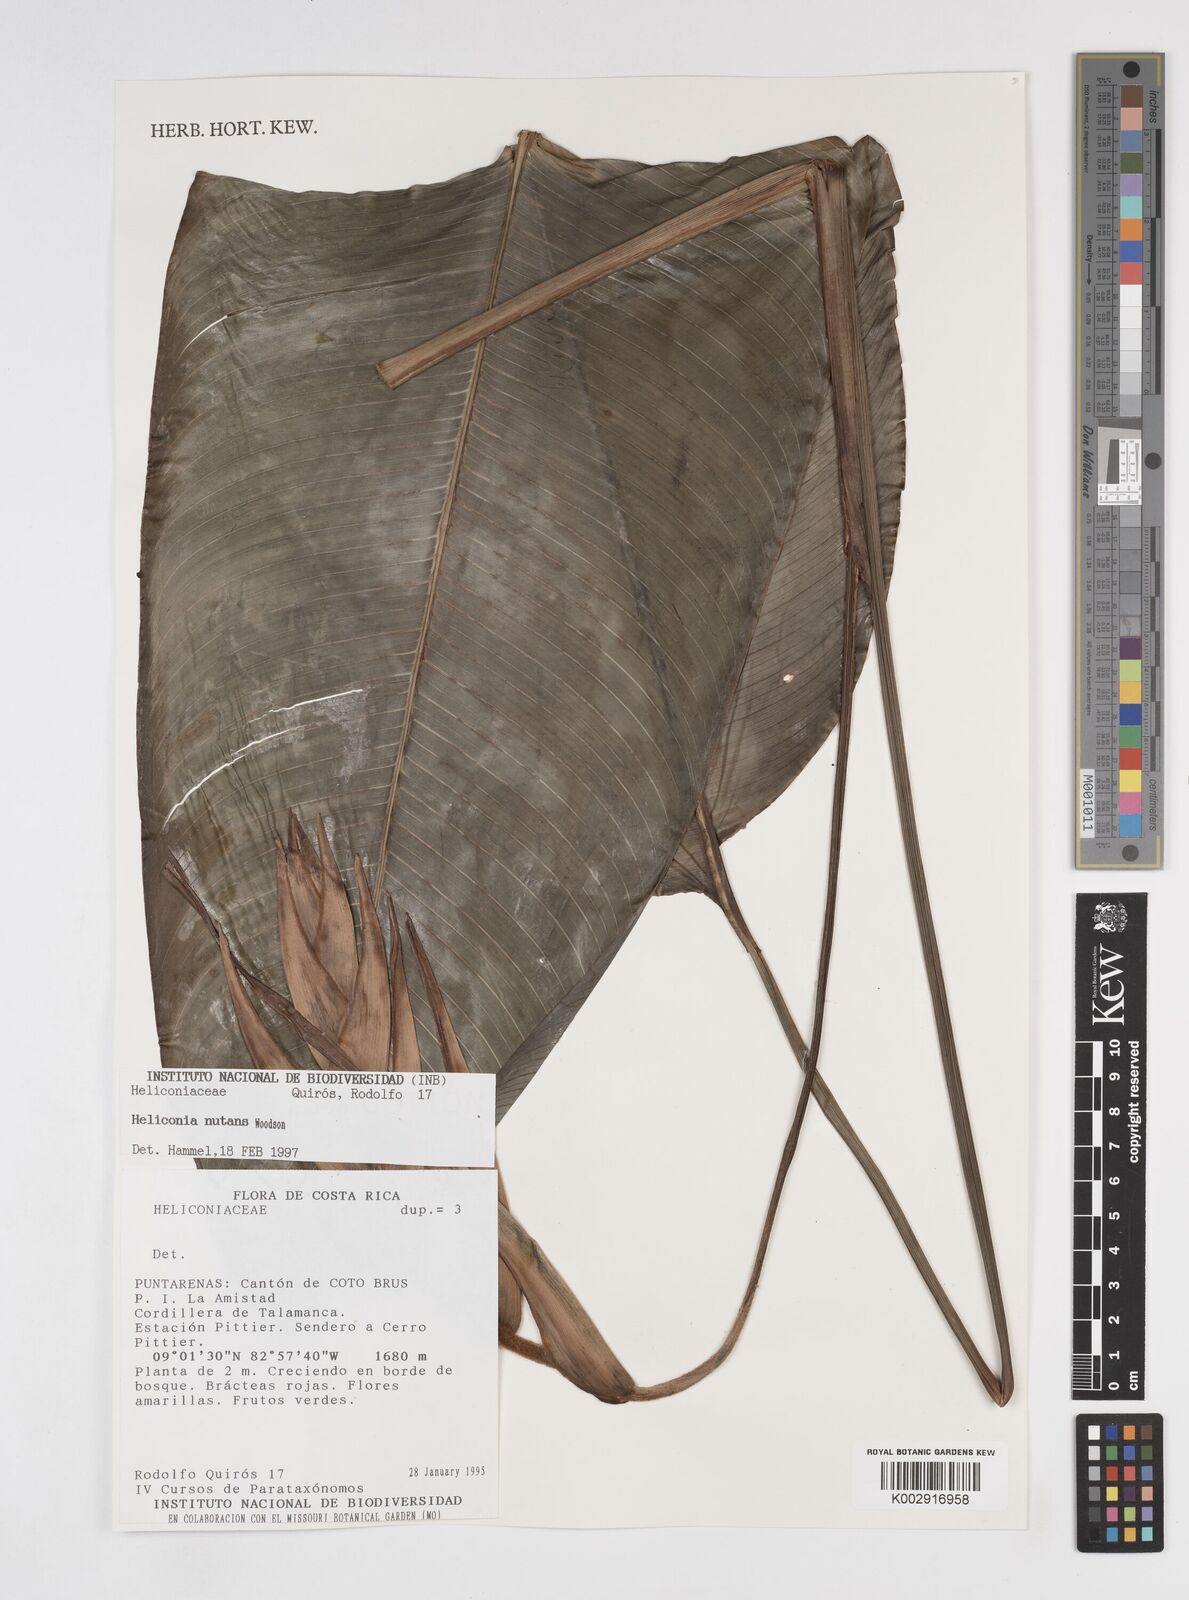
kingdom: Plantae
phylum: Tracheophyta
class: Liliopsida
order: Zingiberales
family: Heliconiaceae
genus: Heliconia
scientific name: Heliconia nutans
